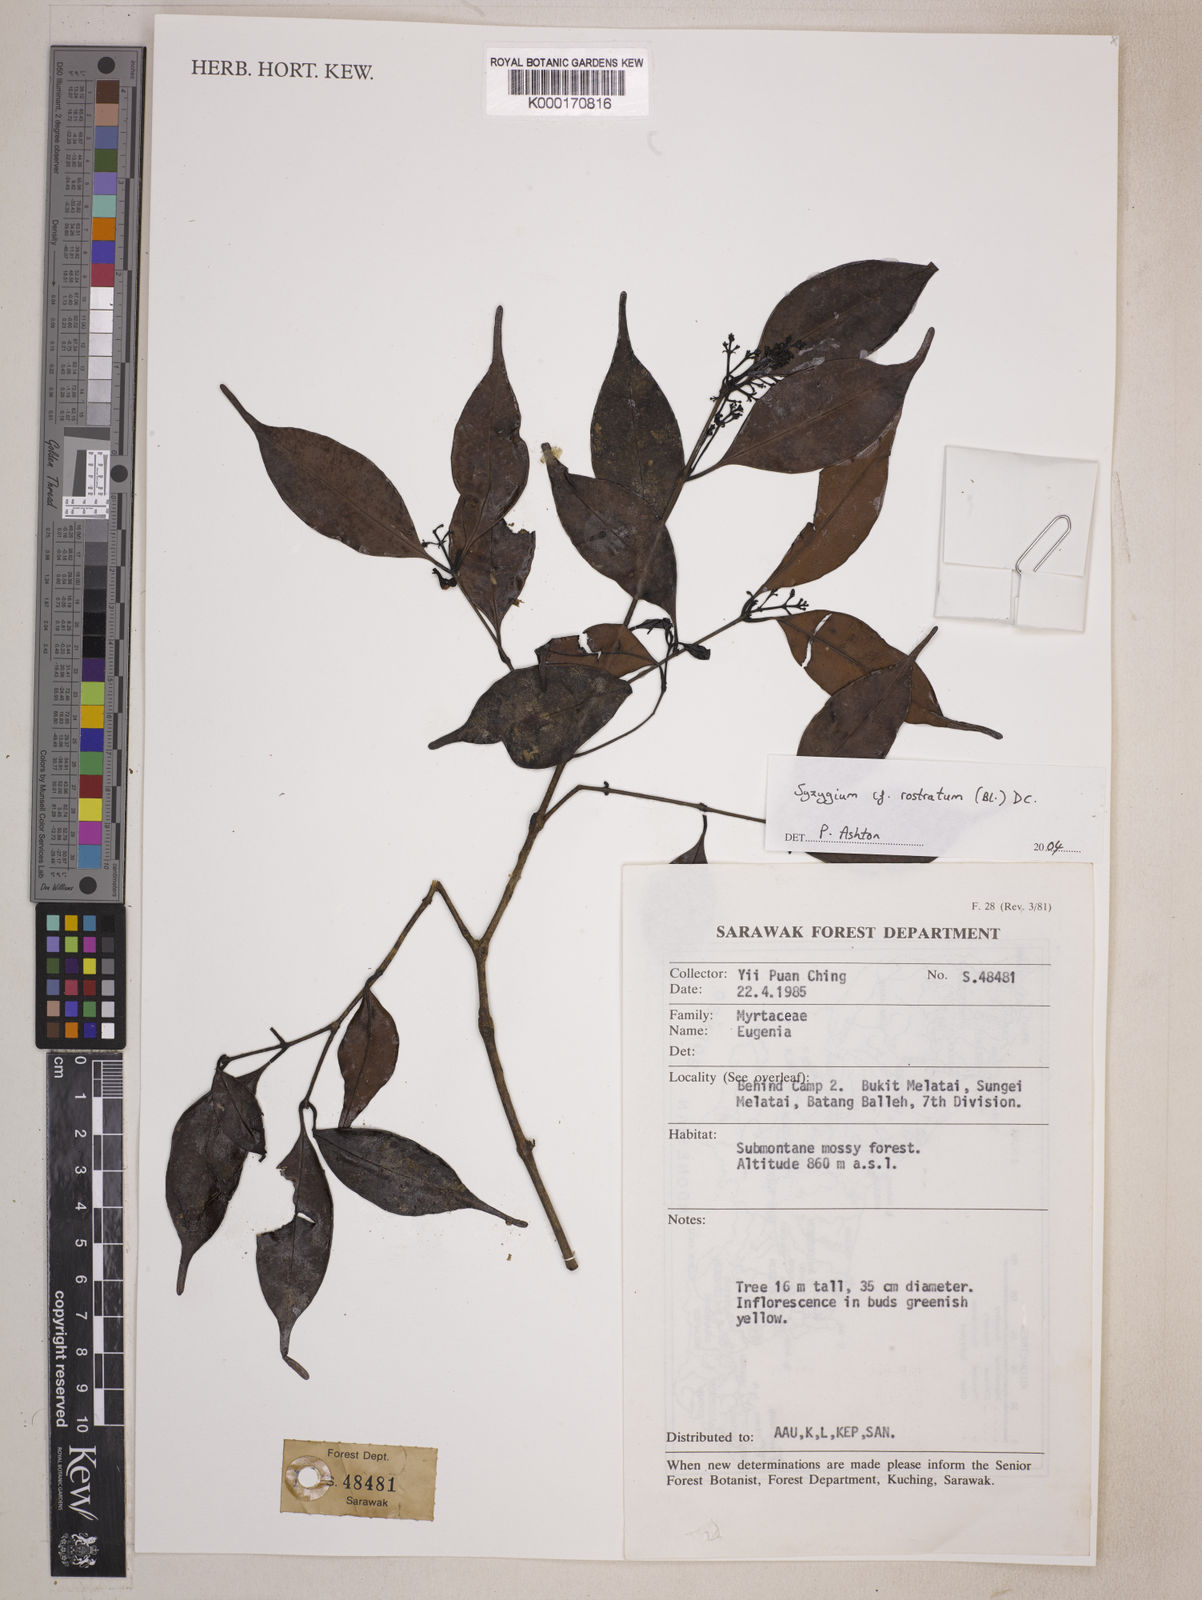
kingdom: Plantae
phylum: Tracheophyta
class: Magnoliopsida
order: Myrtales
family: Myrtaceae
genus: Syzygium
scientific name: Syzygium rostratum
